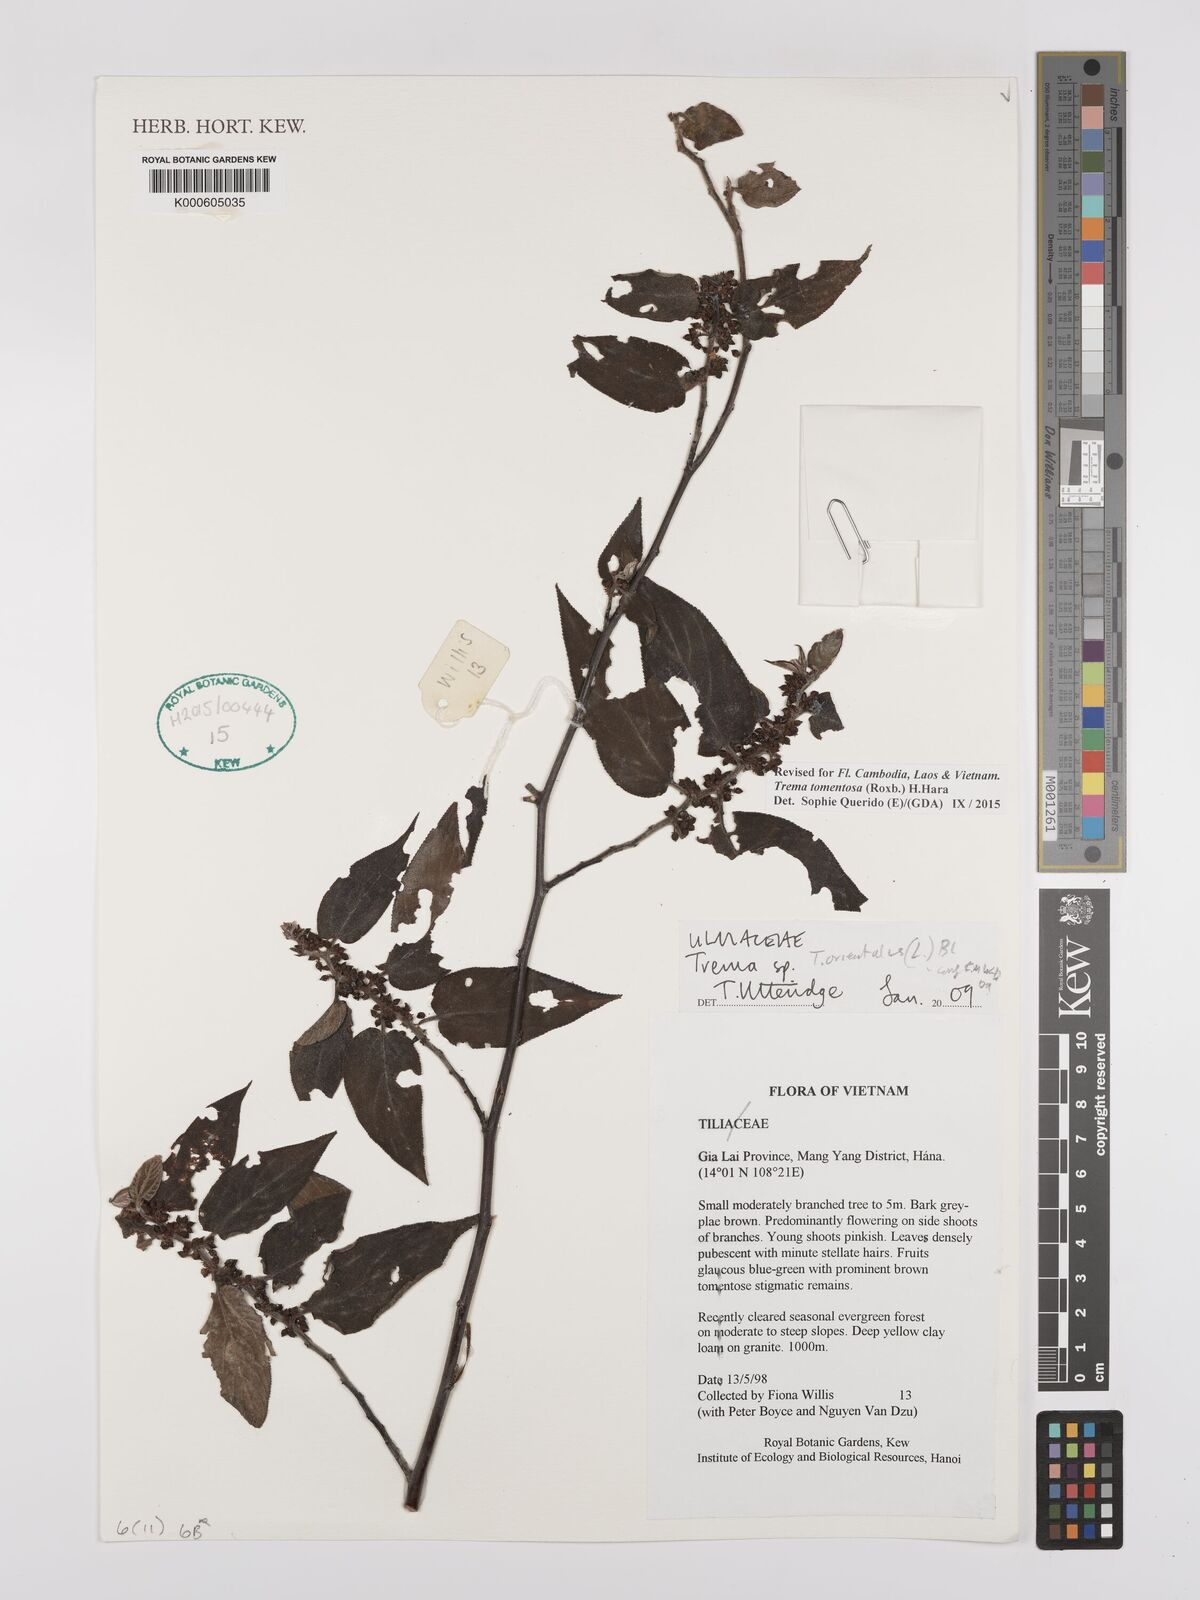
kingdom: Plantae
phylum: Tracheophyta
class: Magnoliopsida
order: Rosales
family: Cannabaceae
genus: Trema
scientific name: Trema
